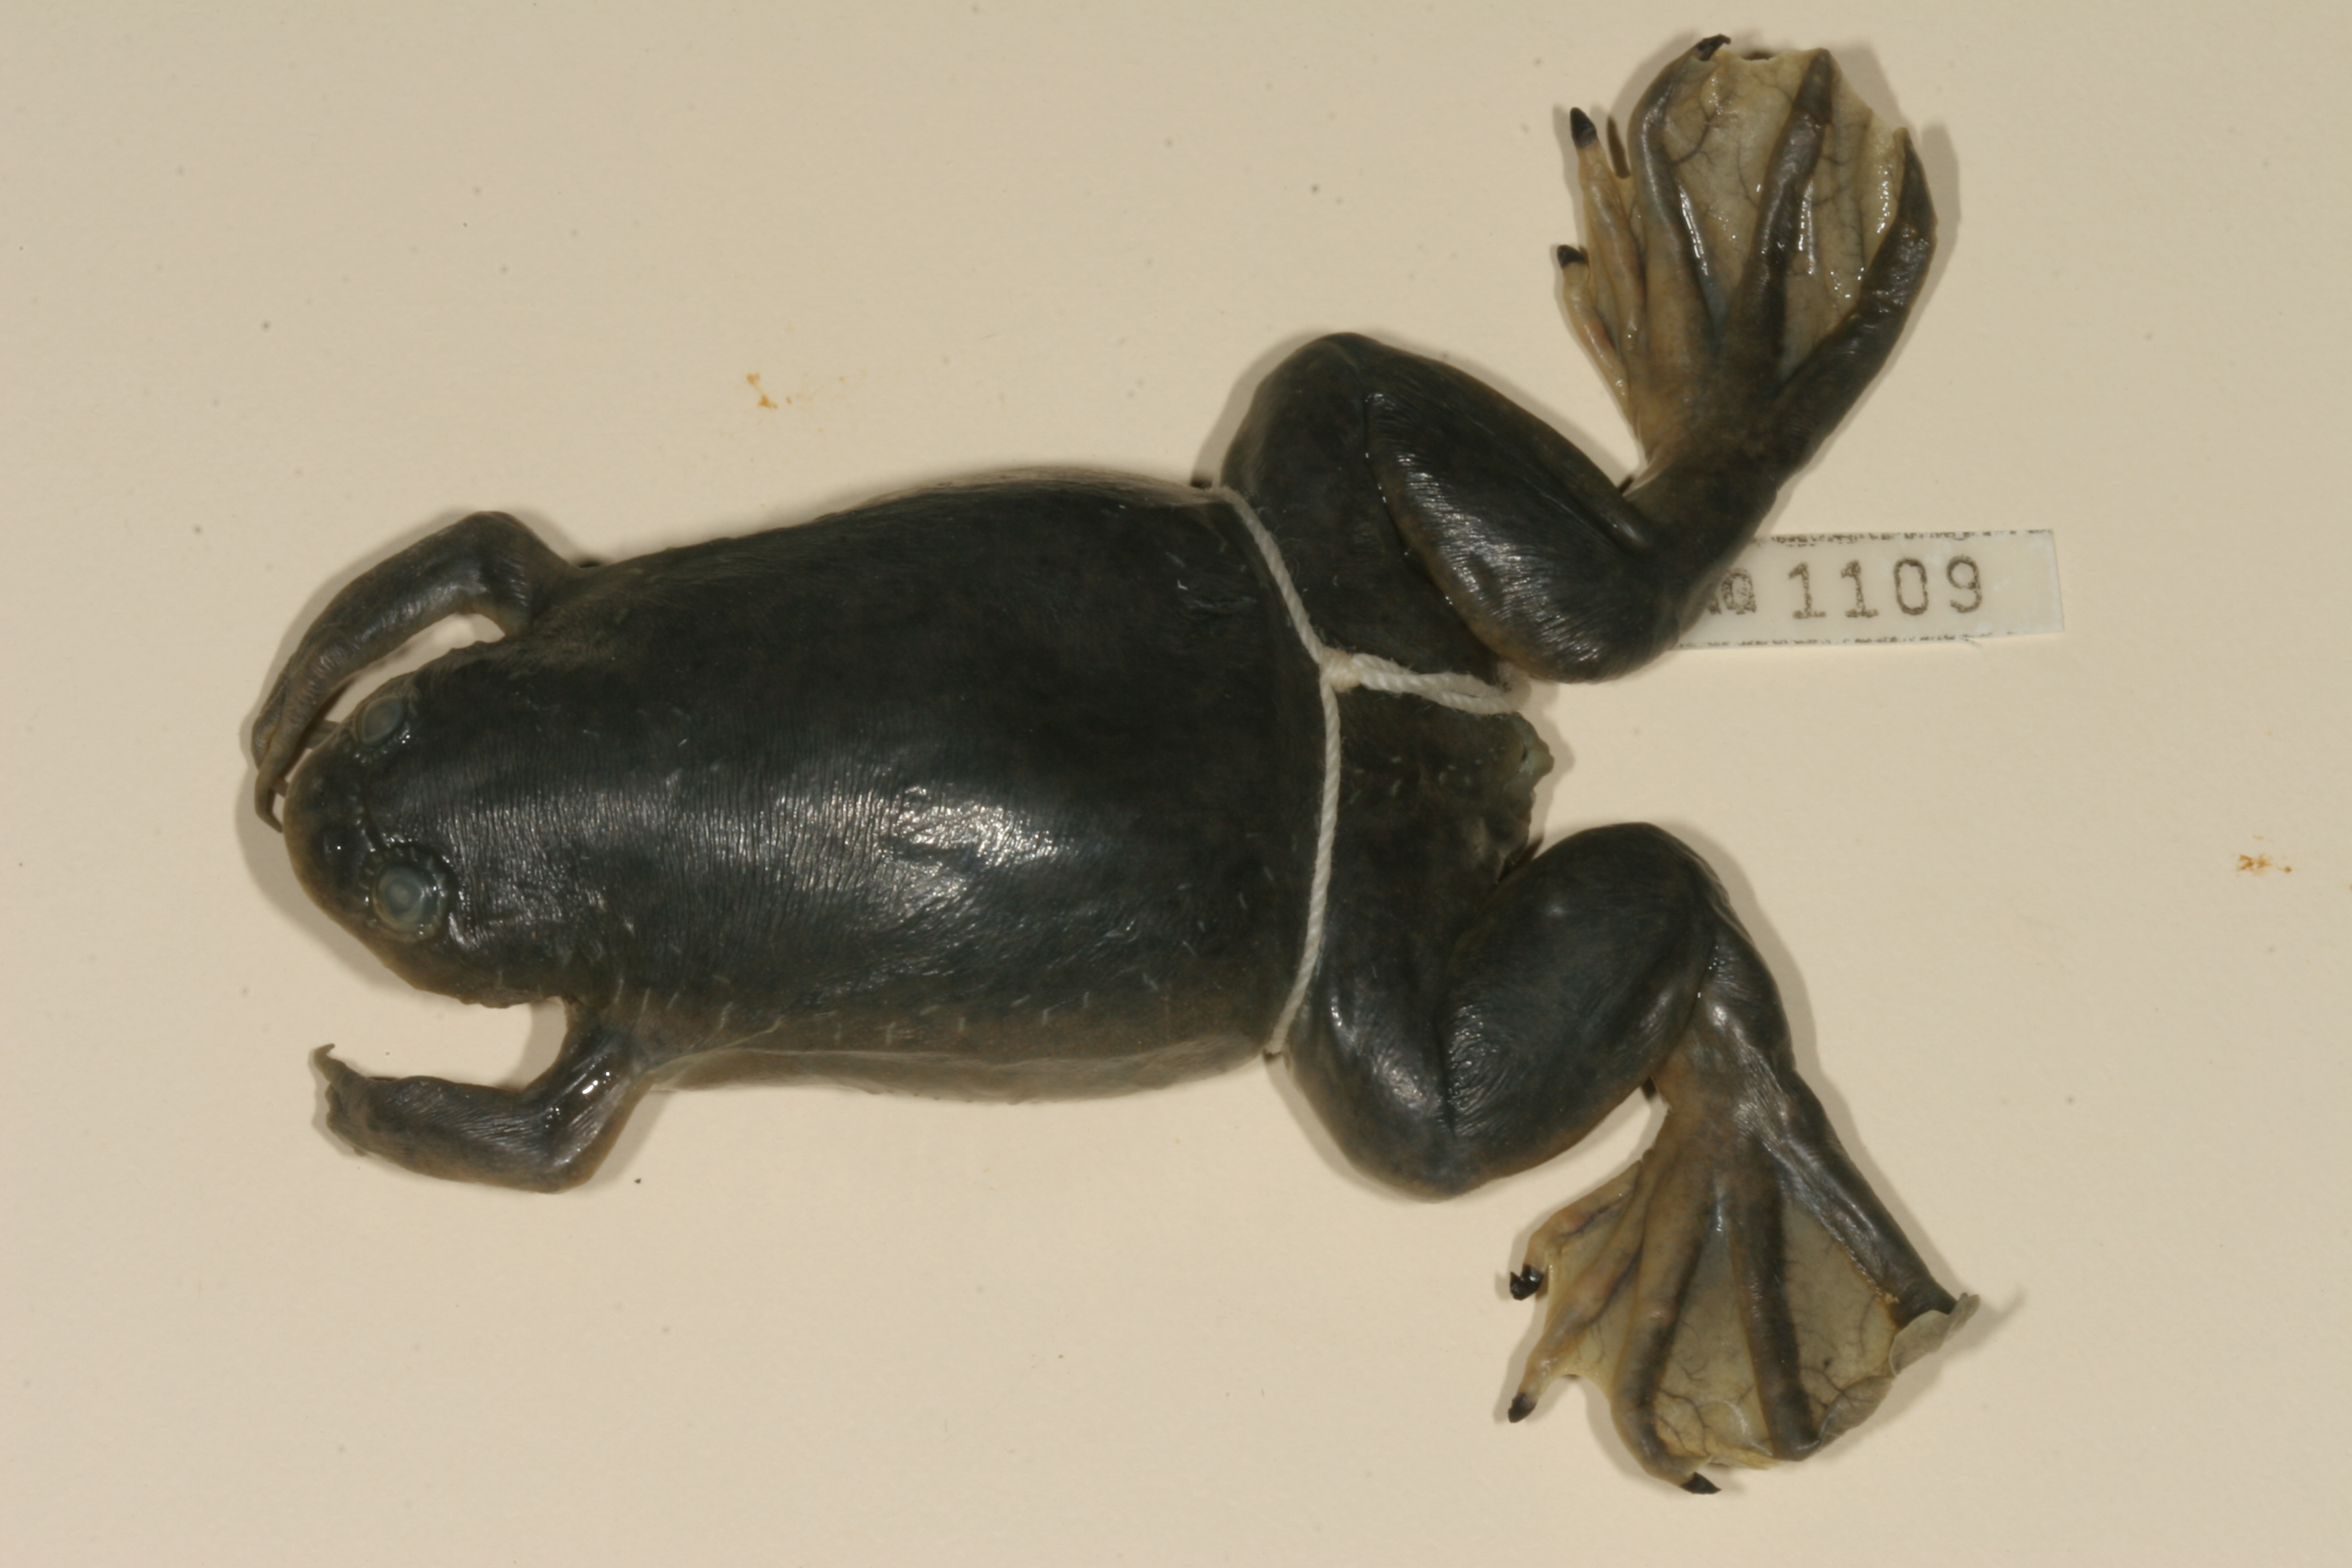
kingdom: Animalia
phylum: Chordata
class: Amphibia
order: Anura
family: Pipidae
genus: Xenopus
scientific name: Xenopus laevis
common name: African clawed frog
